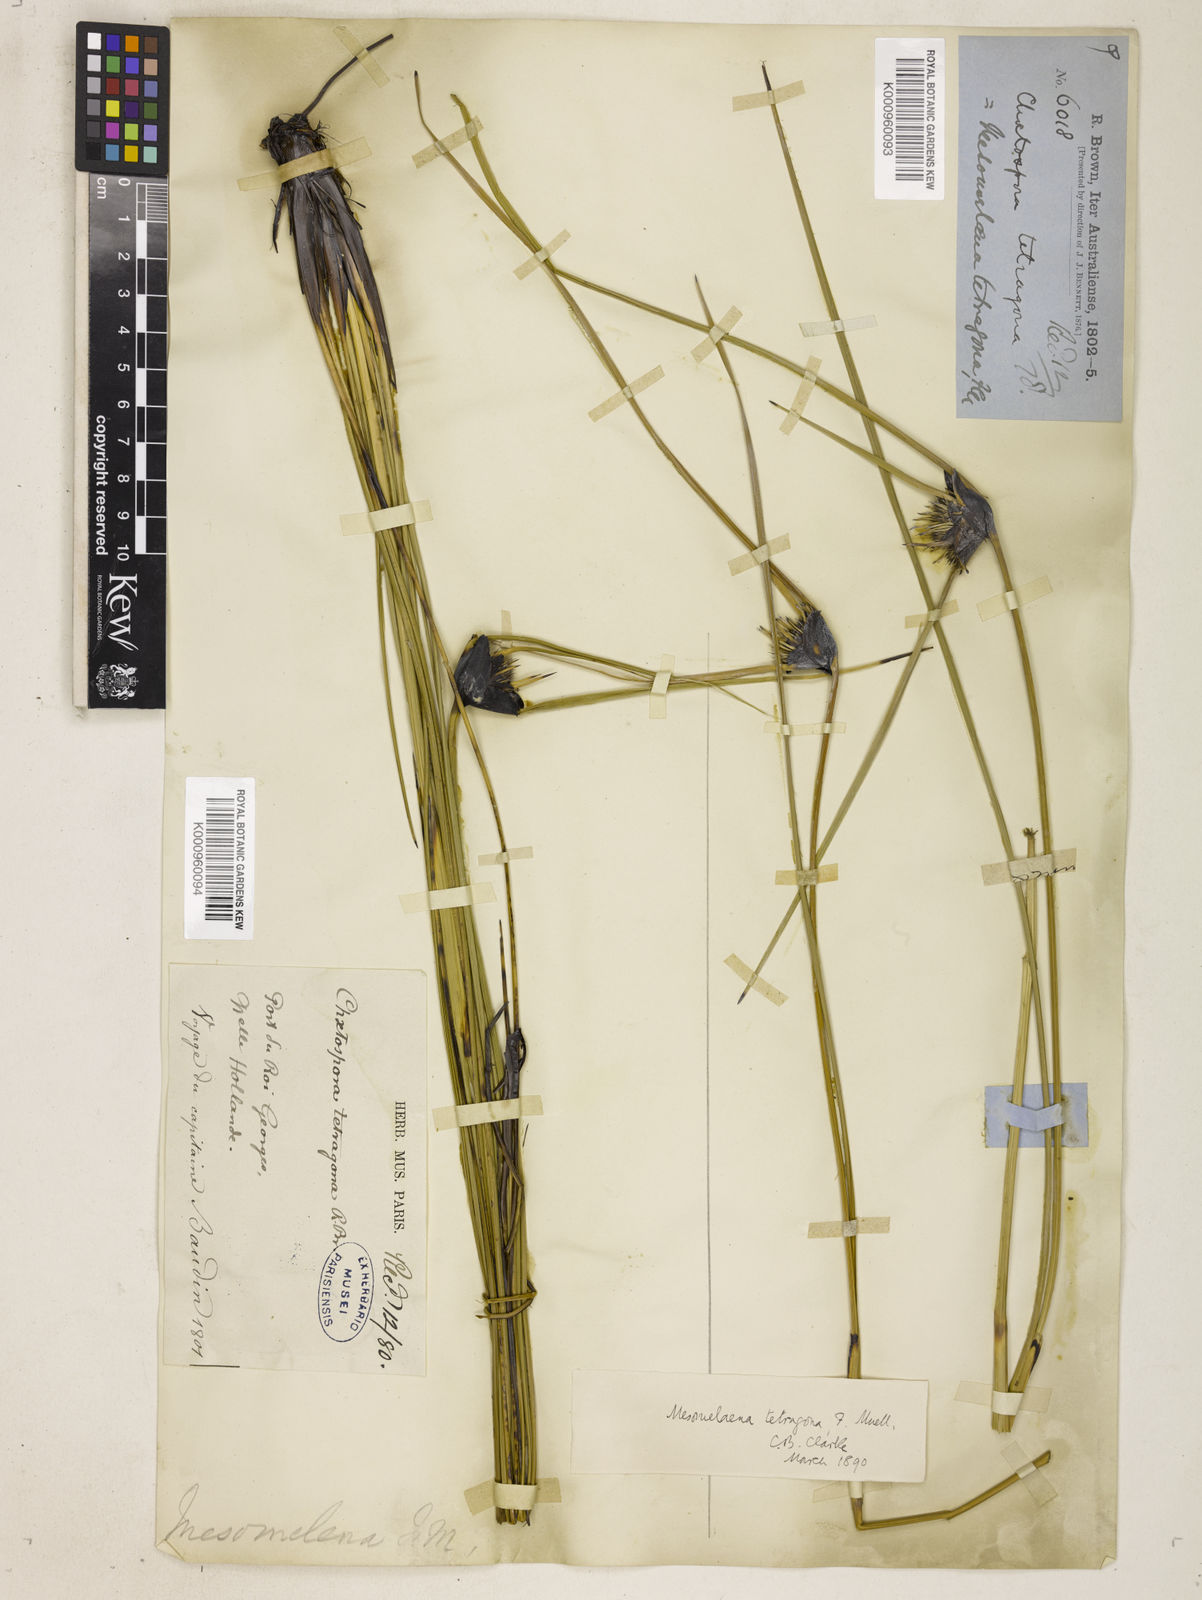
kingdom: Plantae
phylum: Tracheophyta
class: Liliopsida
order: Poales
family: Cyperaceae
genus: Mesomelaena
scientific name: Mesomelaena
